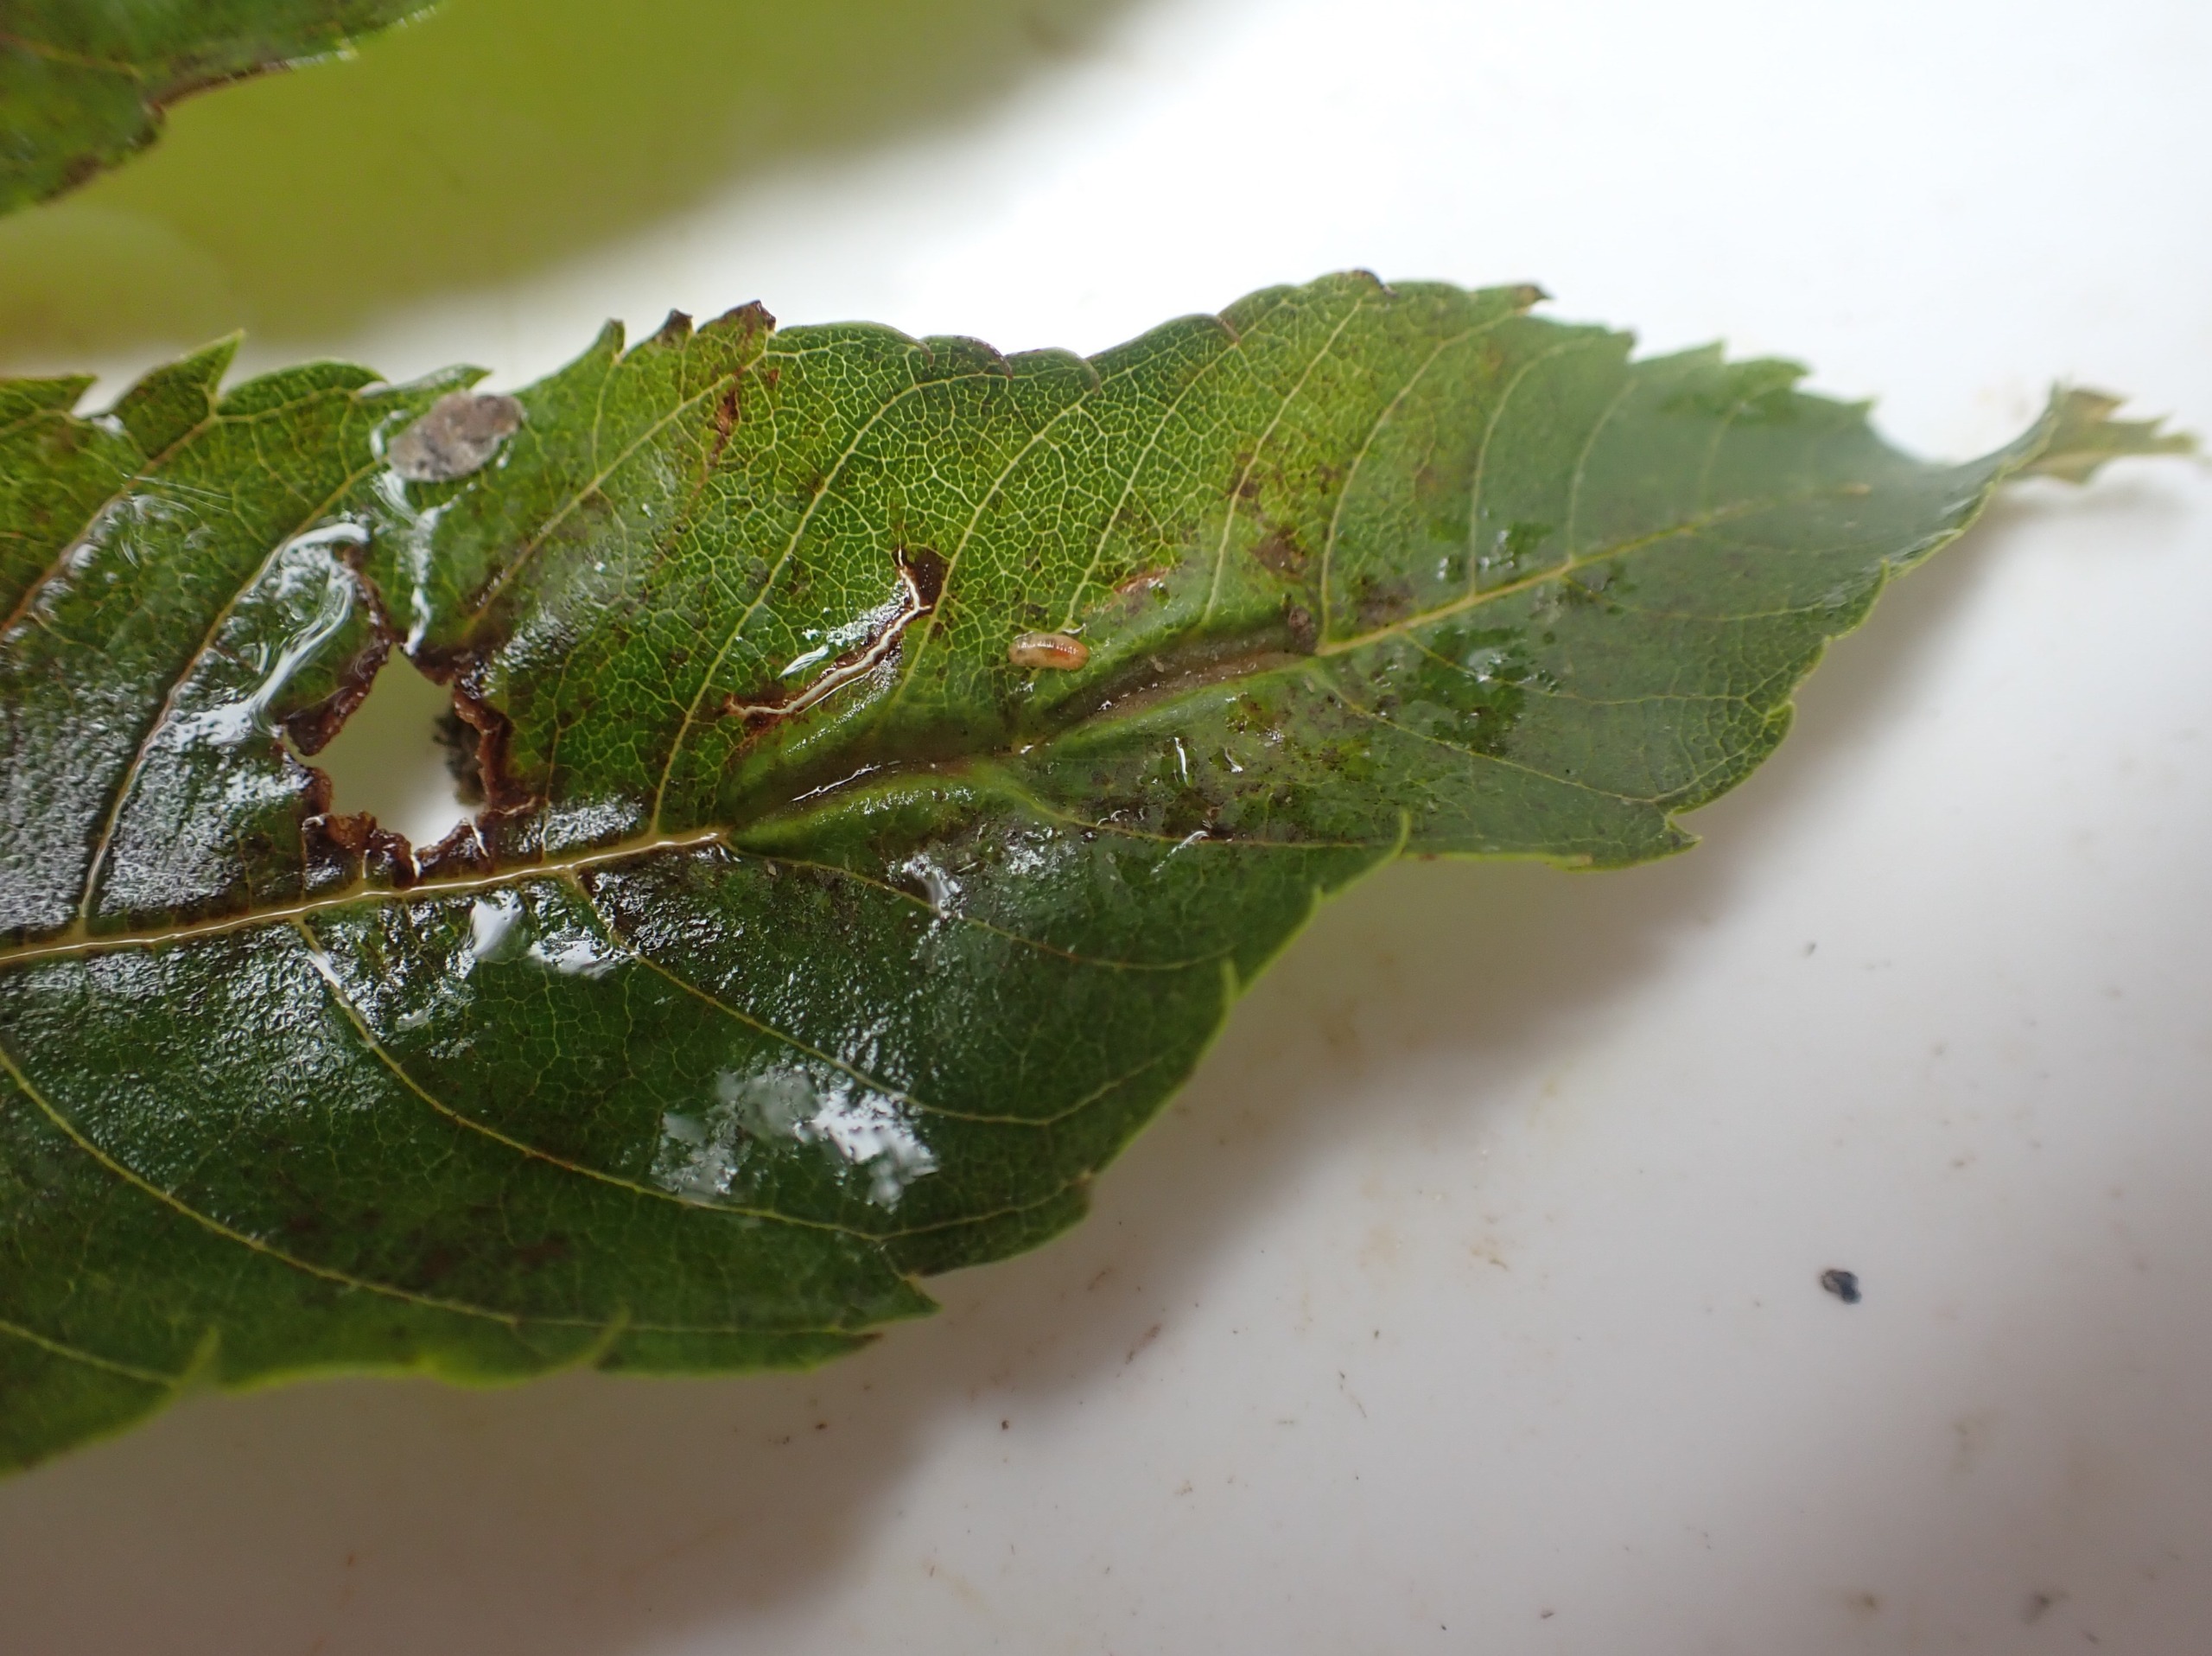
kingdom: Animalia
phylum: Arthropoda
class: Insecta
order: Diptera
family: Cecidomyiidae
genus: Dasineura
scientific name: Dasineura fraxini
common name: Orange askebladgalmyg
